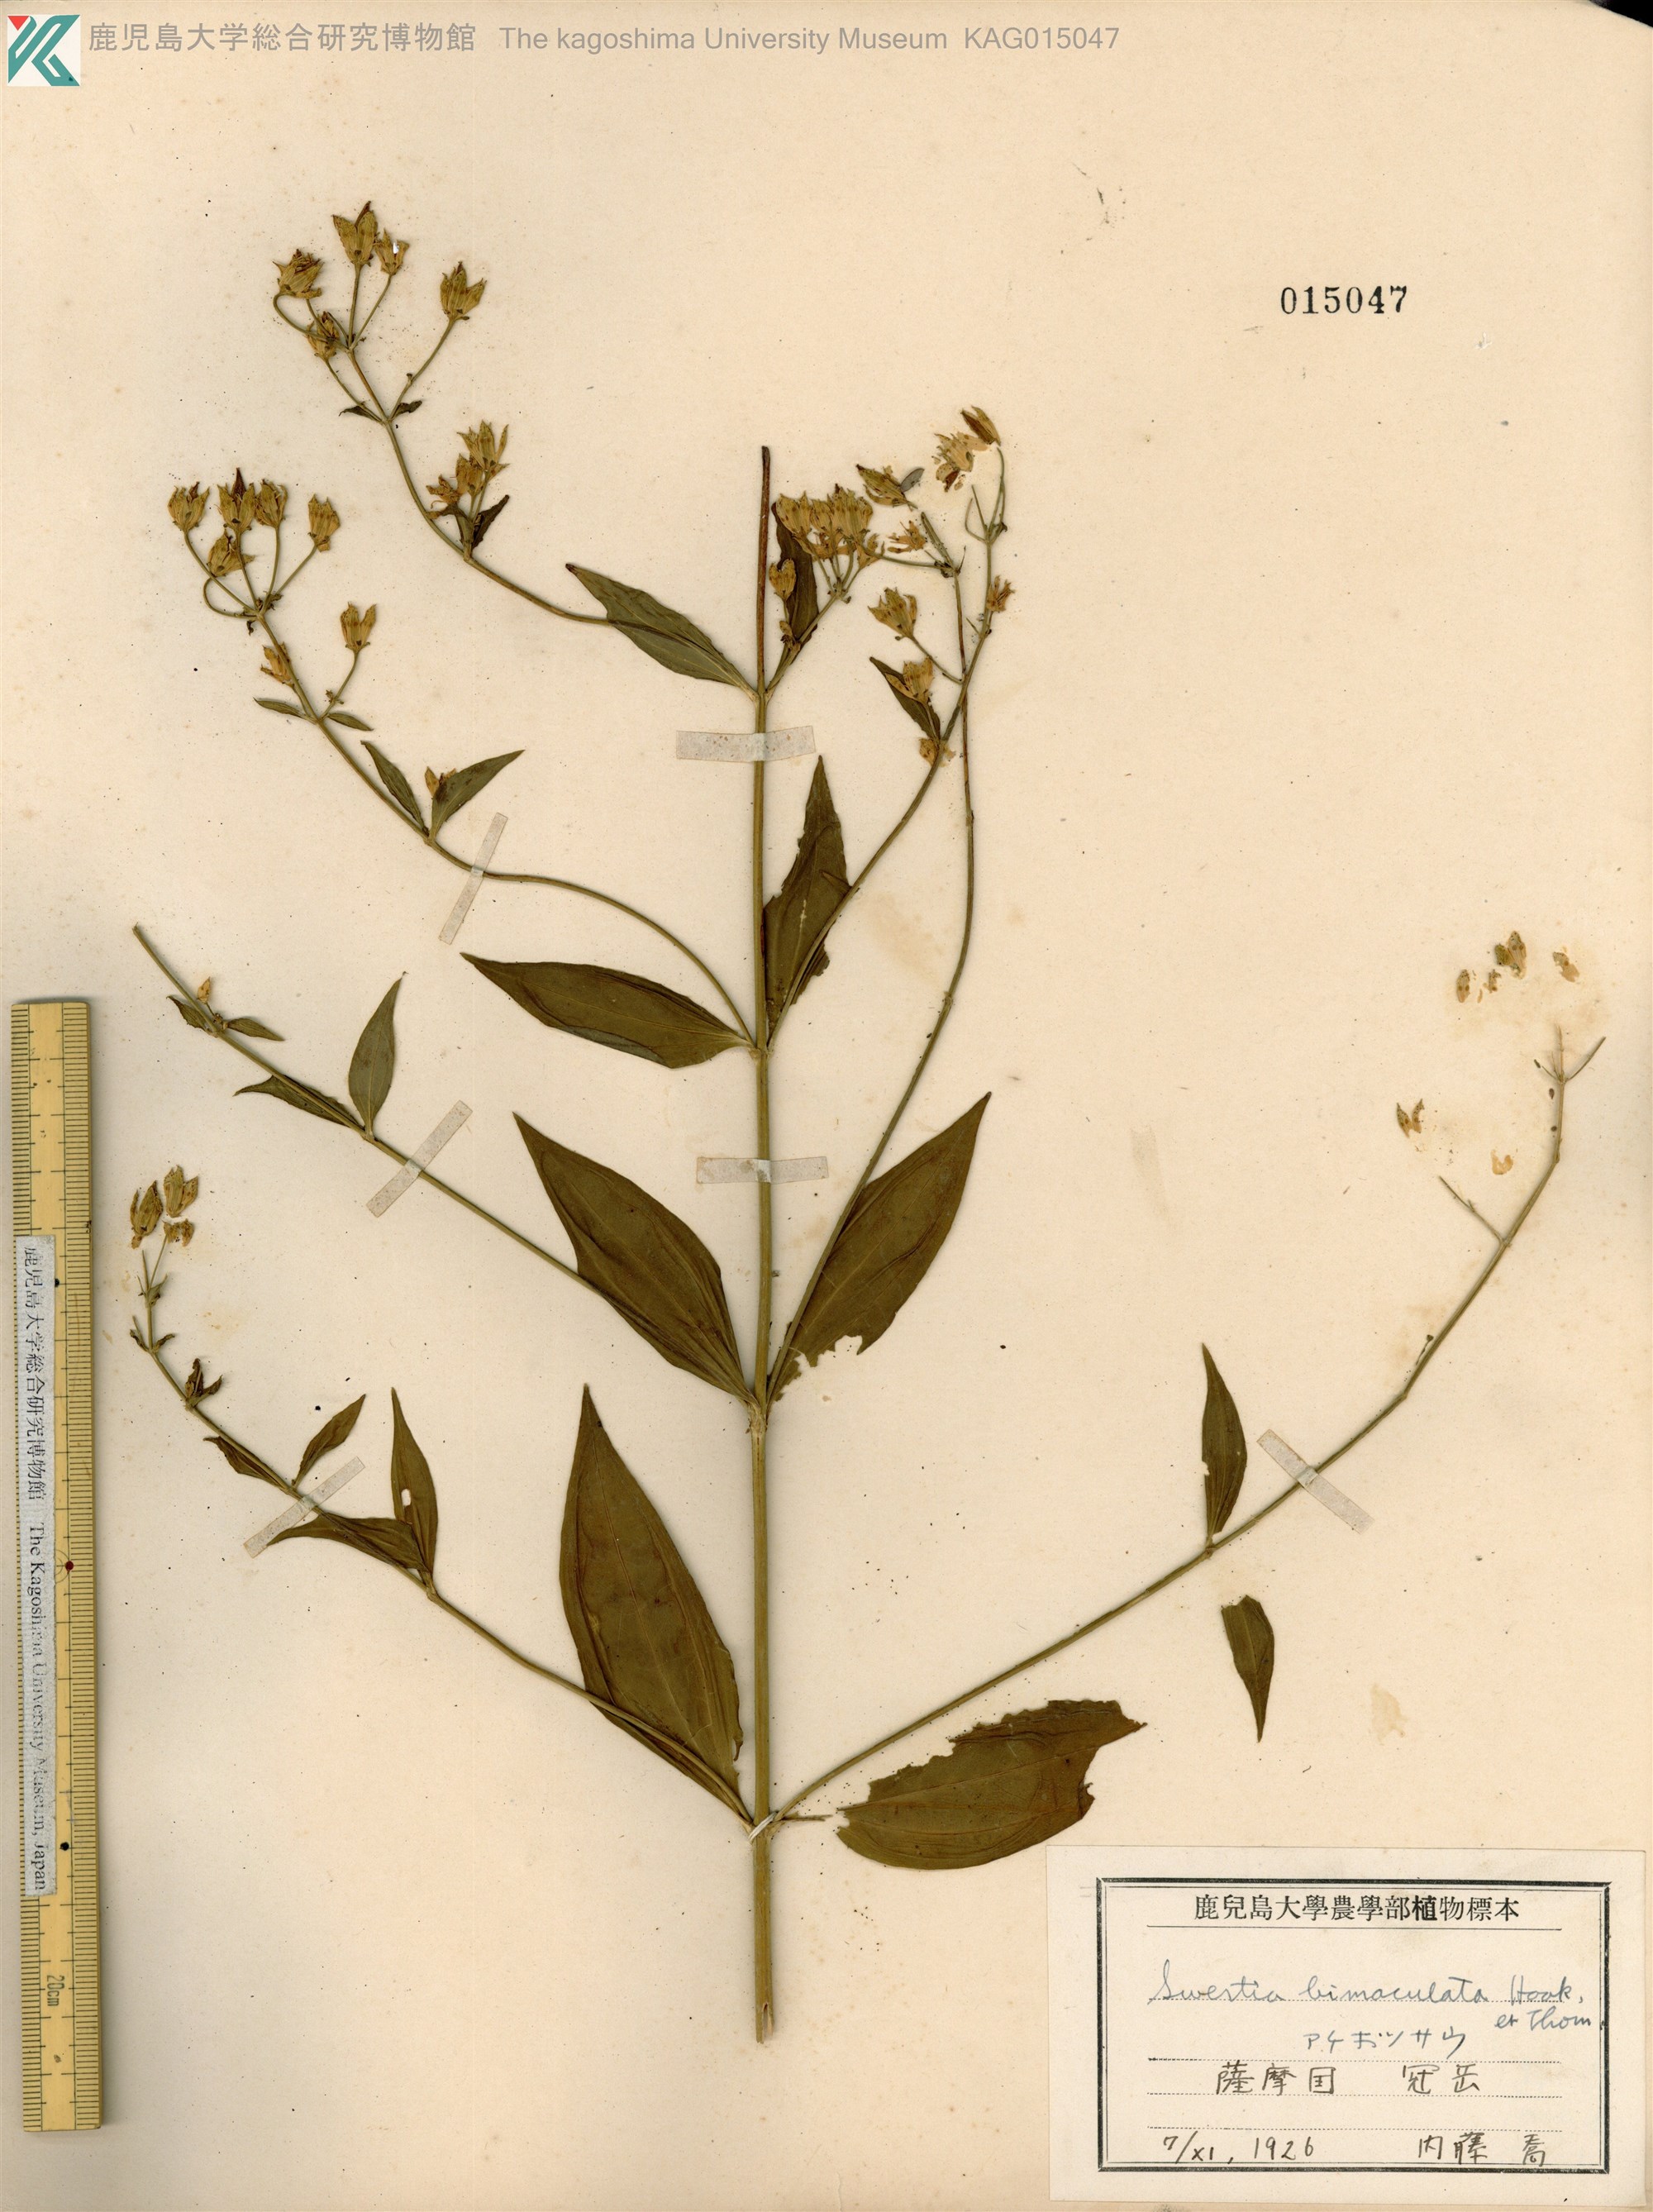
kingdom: Plantae
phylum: Tracheophyta
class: Magnoliopsida
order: Gentianales
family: Gentianaceae
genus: Swertia
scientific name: Swertia bimaculata
